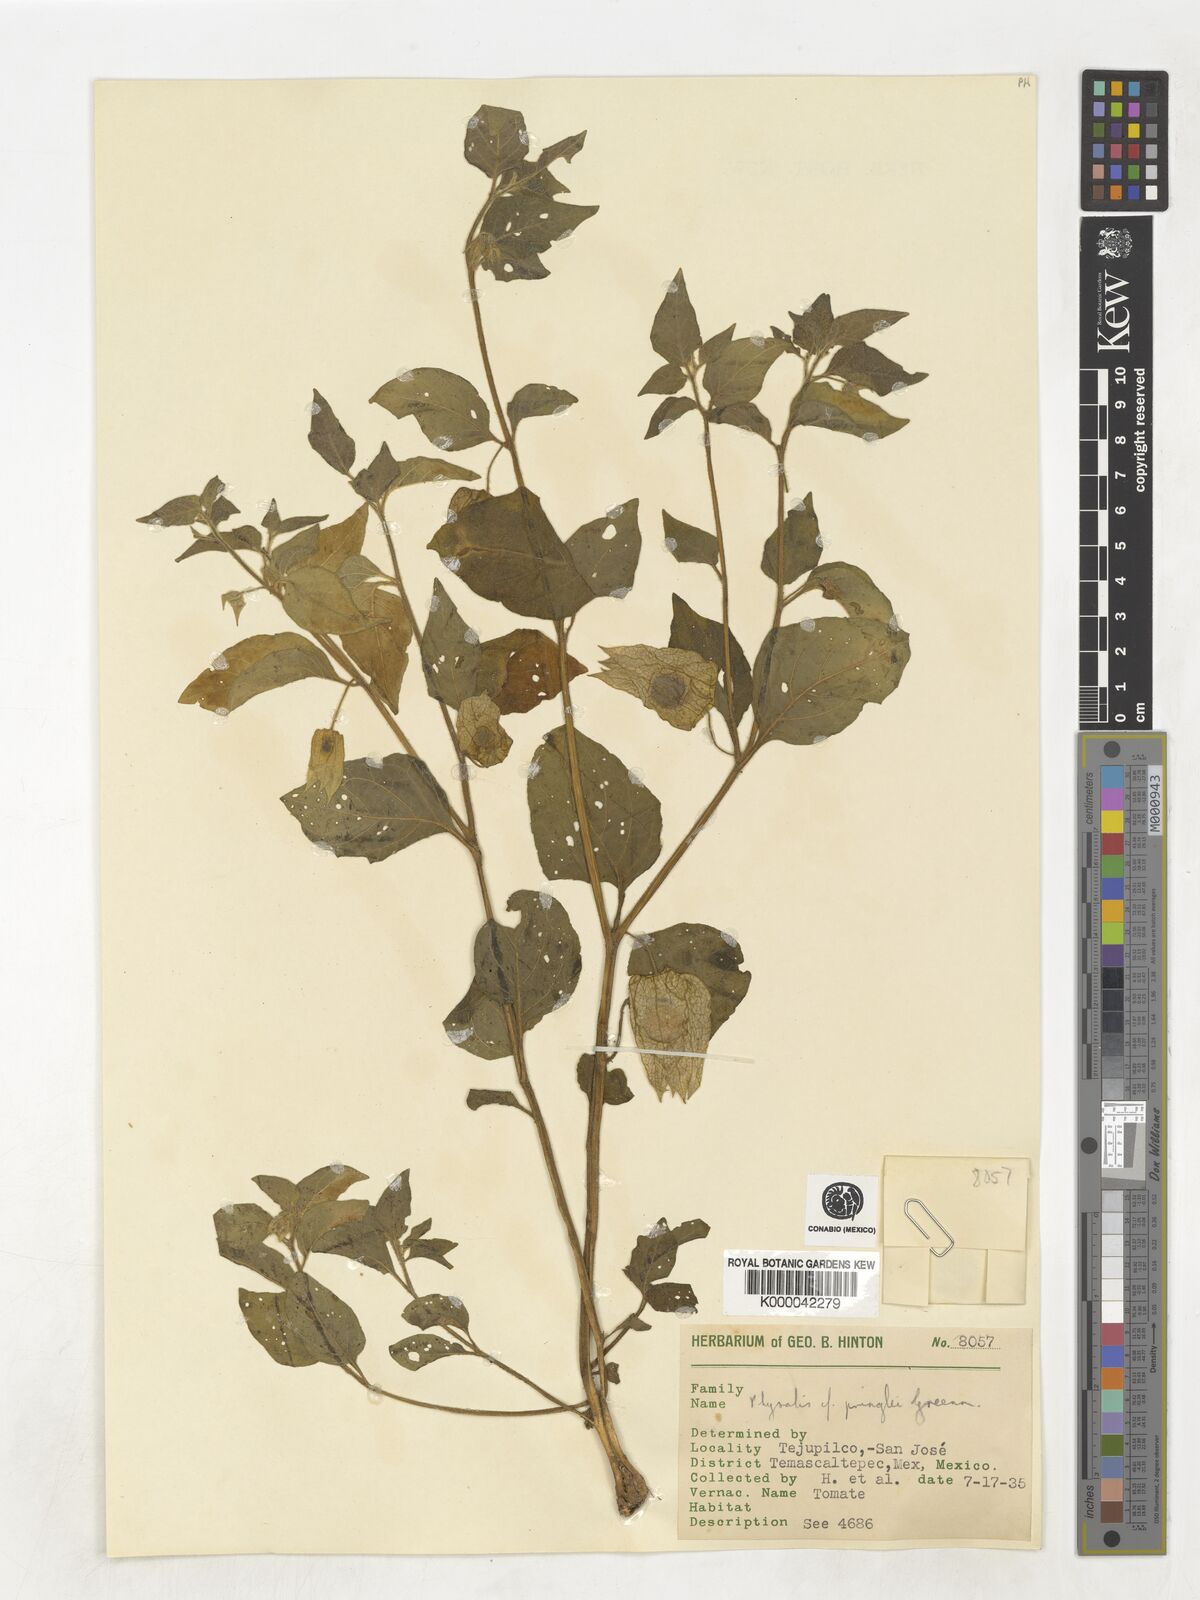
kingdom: Plantae
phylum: Tracheophyta
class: Magnoliopsida
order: Solanales
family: Solanaceae
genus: Physalis
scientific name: Physalis pringlei
